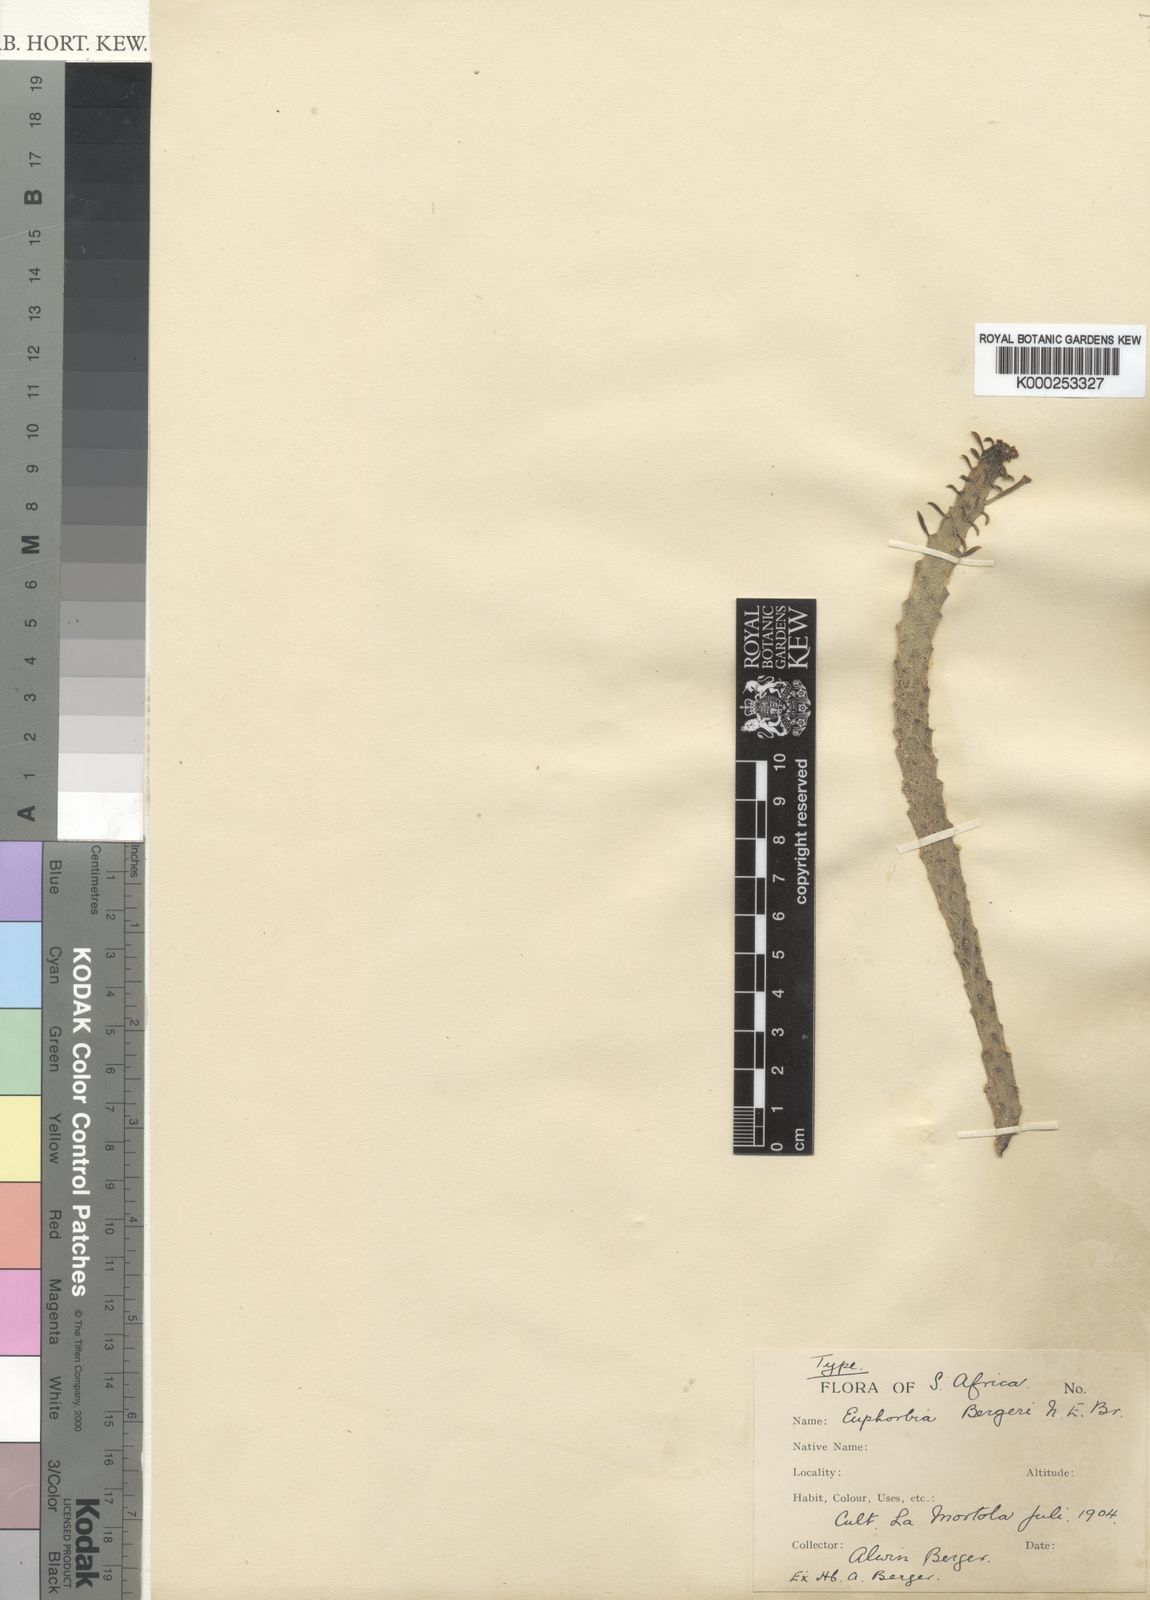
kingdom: Plantae
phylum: Tracheophyta
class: Magnoliopsida
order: Malpighiales
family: Euphorbiaceae
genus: Euphorbia
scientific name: Euphorbia bergeri
